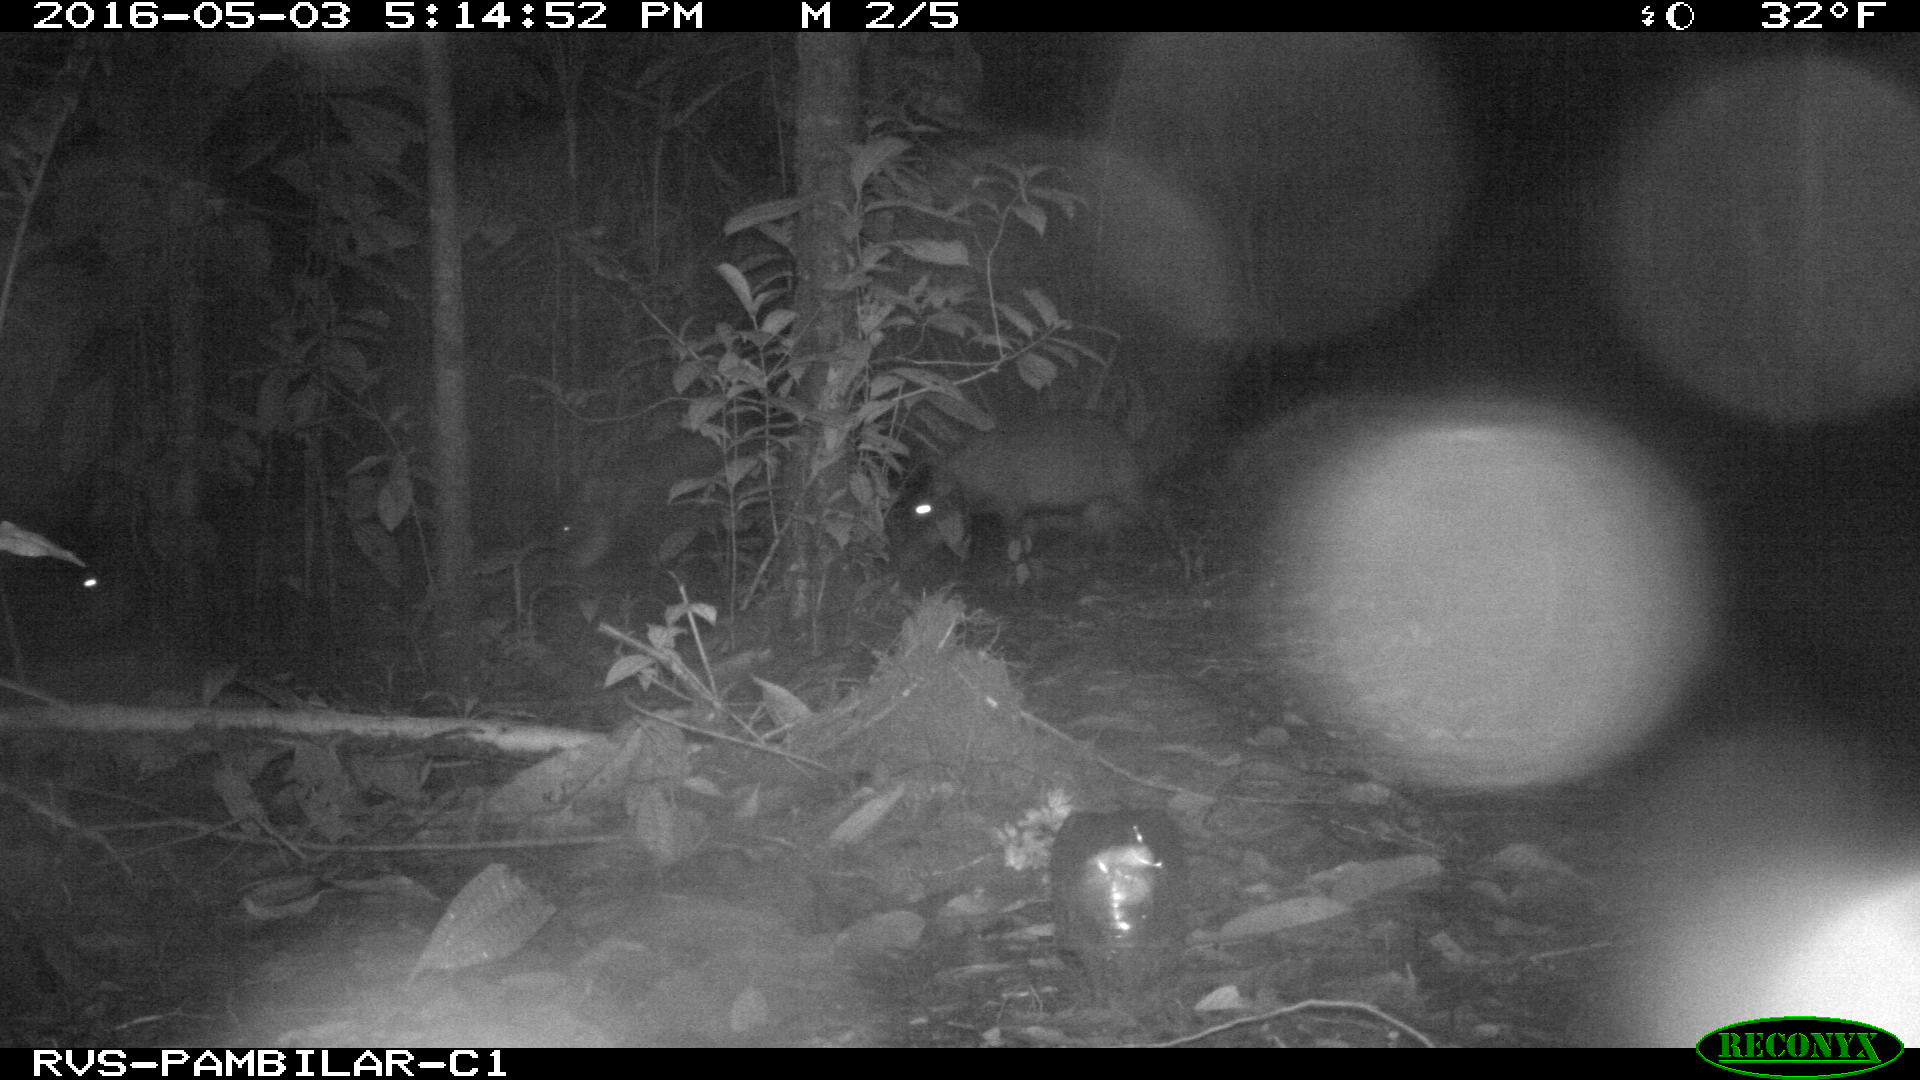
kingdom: Animalia
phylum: Chordata
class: Mammalia
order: Artiodactyla
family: Tayassuidae
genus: Tayassu
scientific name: Tayassu pecari
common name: White-lipped peccary
